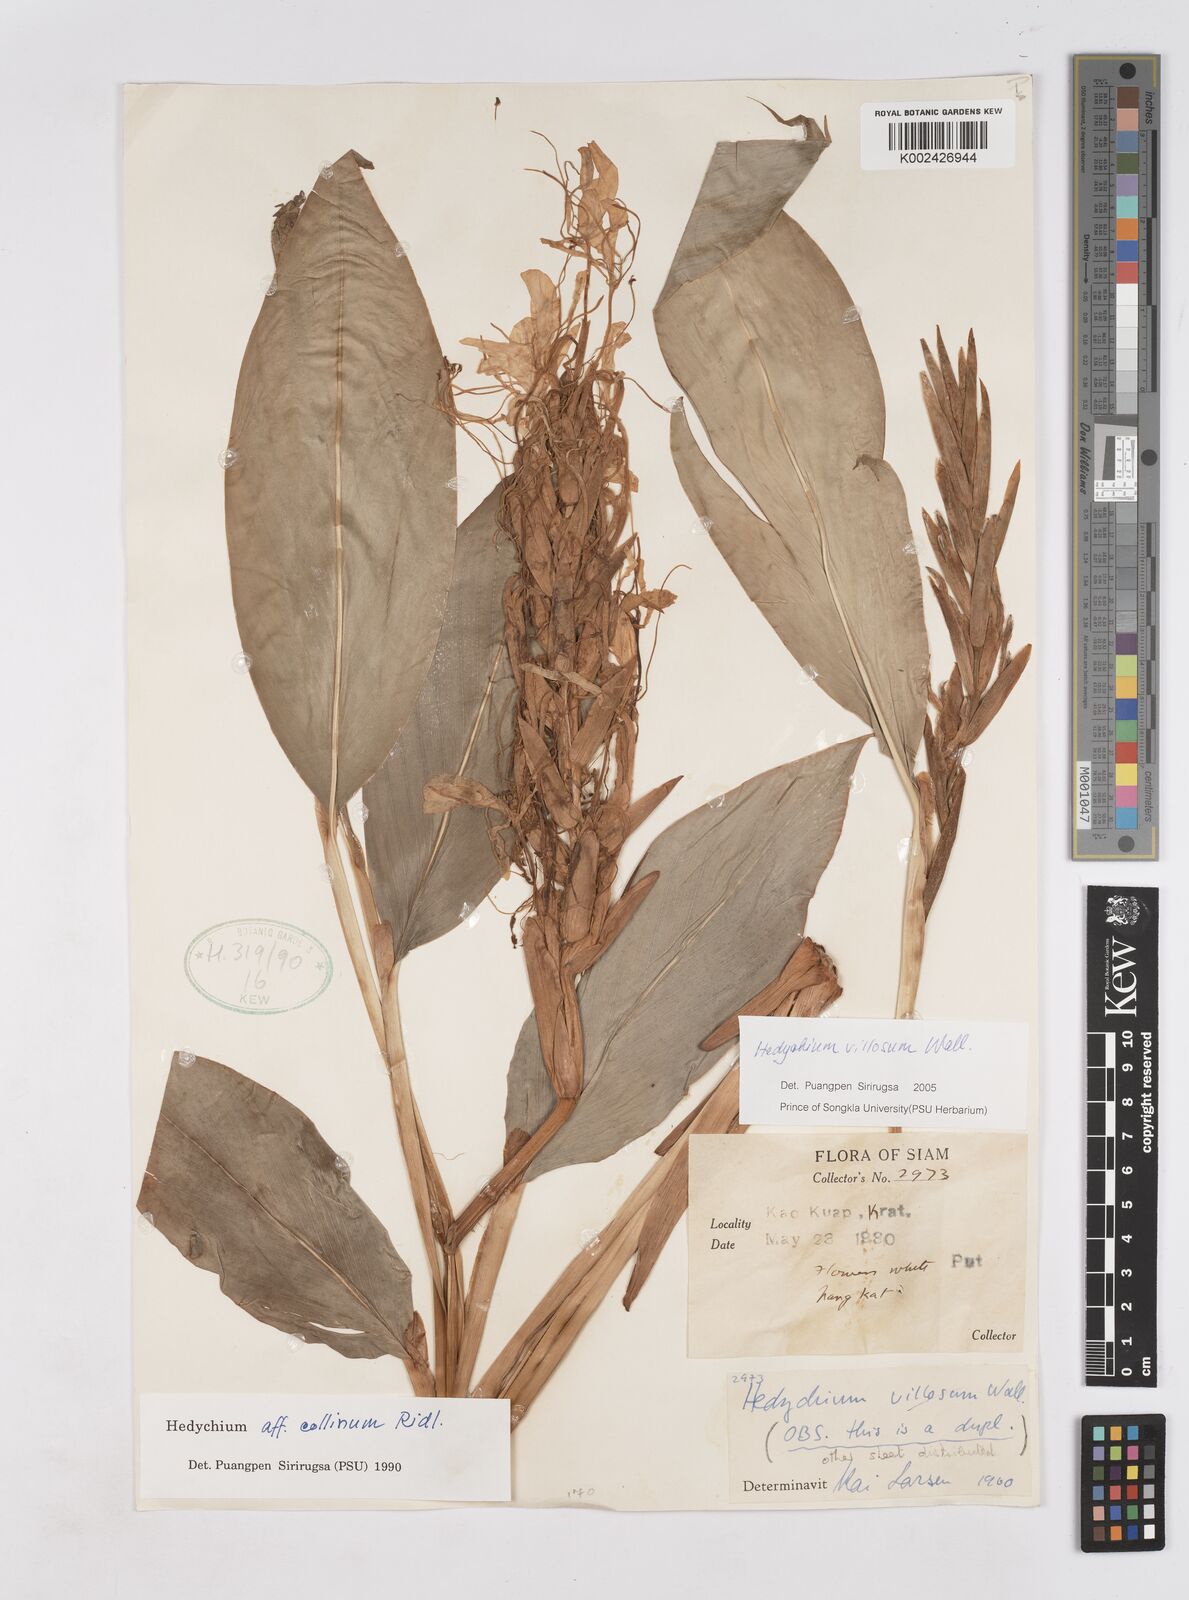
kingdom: Plantae
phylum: Tracheophyta
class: Liliopsida
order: Zingiberales
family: Zingiberaceae
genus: Hedychium
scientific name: Hedychium villosum
